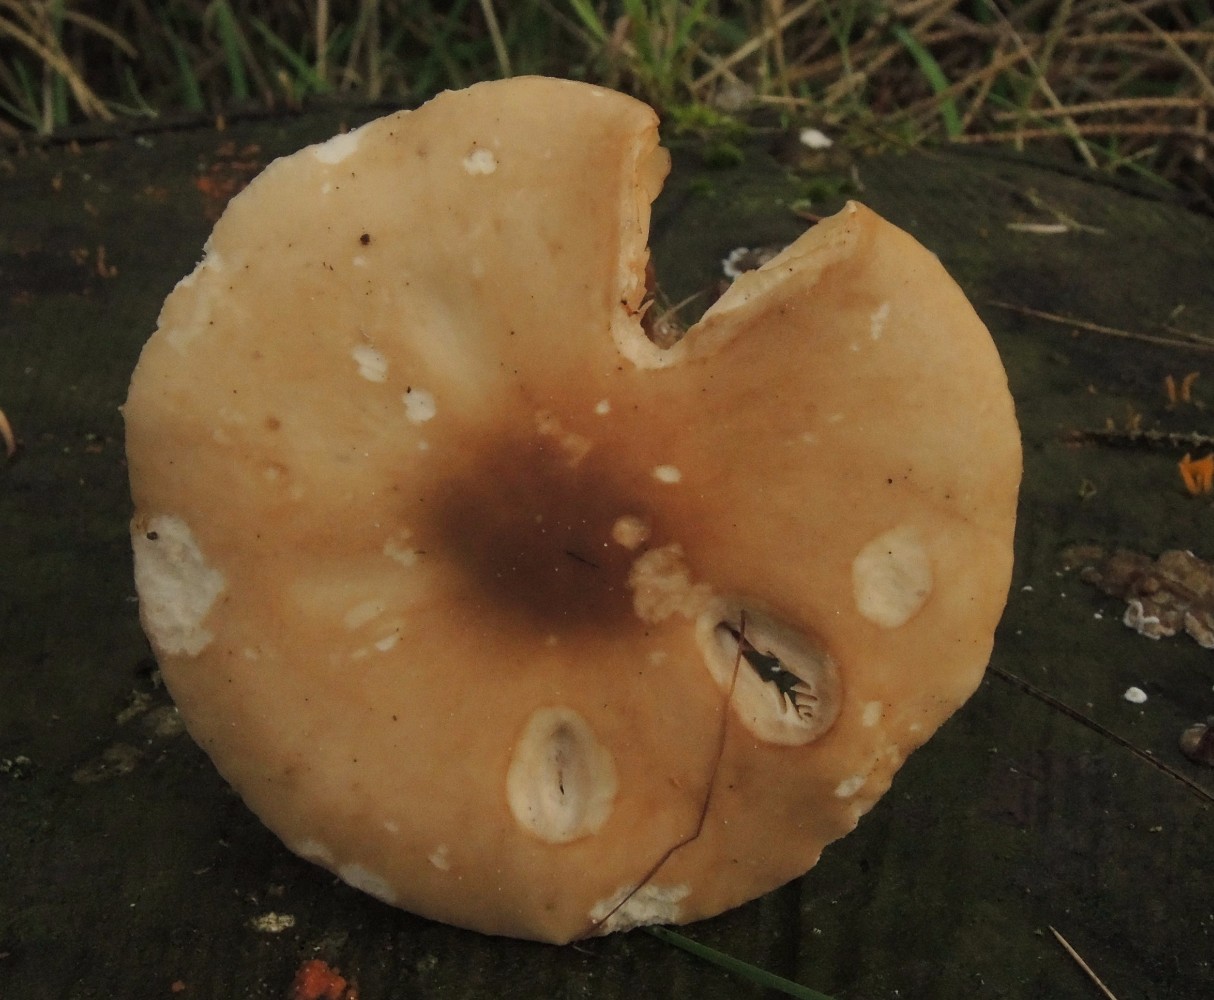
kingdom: Fungi
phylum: Basidiomycota
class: Agaricomycetes
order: Agaricales
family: Tricholomataceae
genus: Melanoleuca
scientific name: Melanoleuca cognata
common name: gyldengrå munkehat
